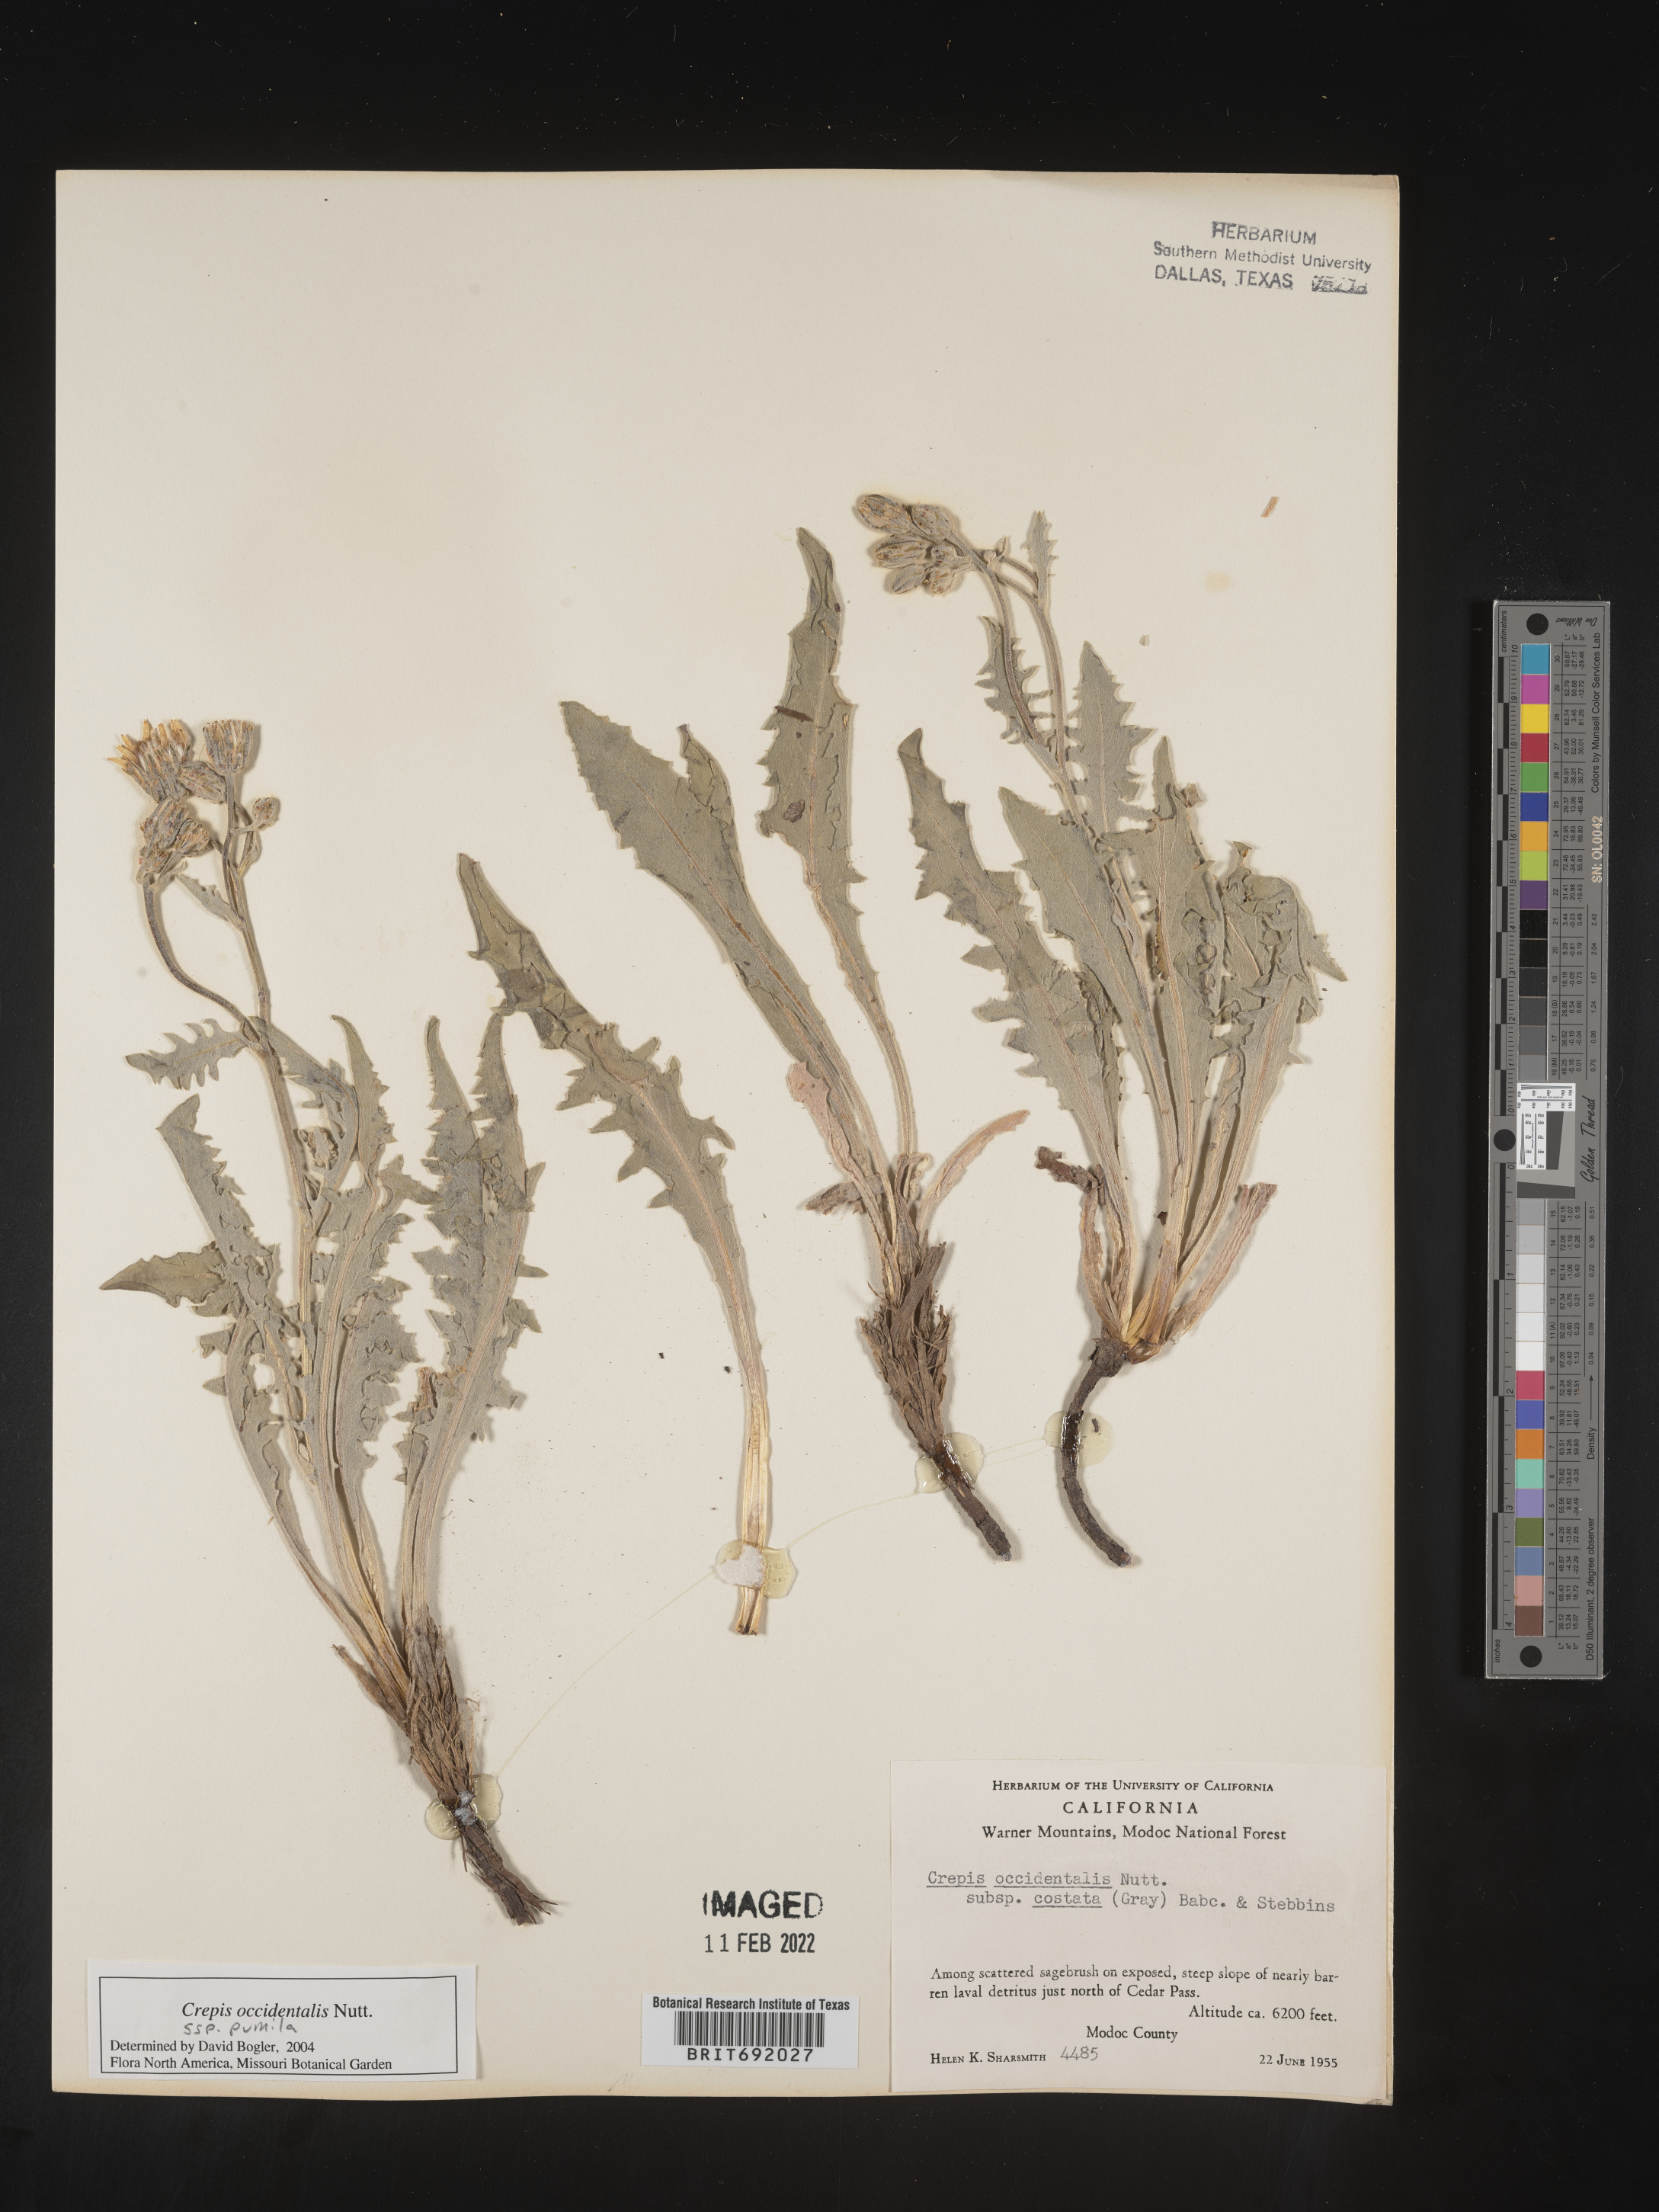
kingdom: Plantae
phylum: Tracheophyta
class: Magnoliopsida
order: Asterales
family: Asteraceae
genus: Crepis
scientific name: Crepis occidentalis
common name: Gray hawk's-beard
